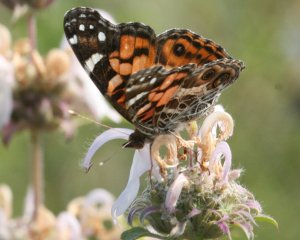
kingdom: Animalia
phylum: Arthropoda
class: Insecta
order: Lepidoptera
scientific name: Lepidoptera
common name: Butterflies
